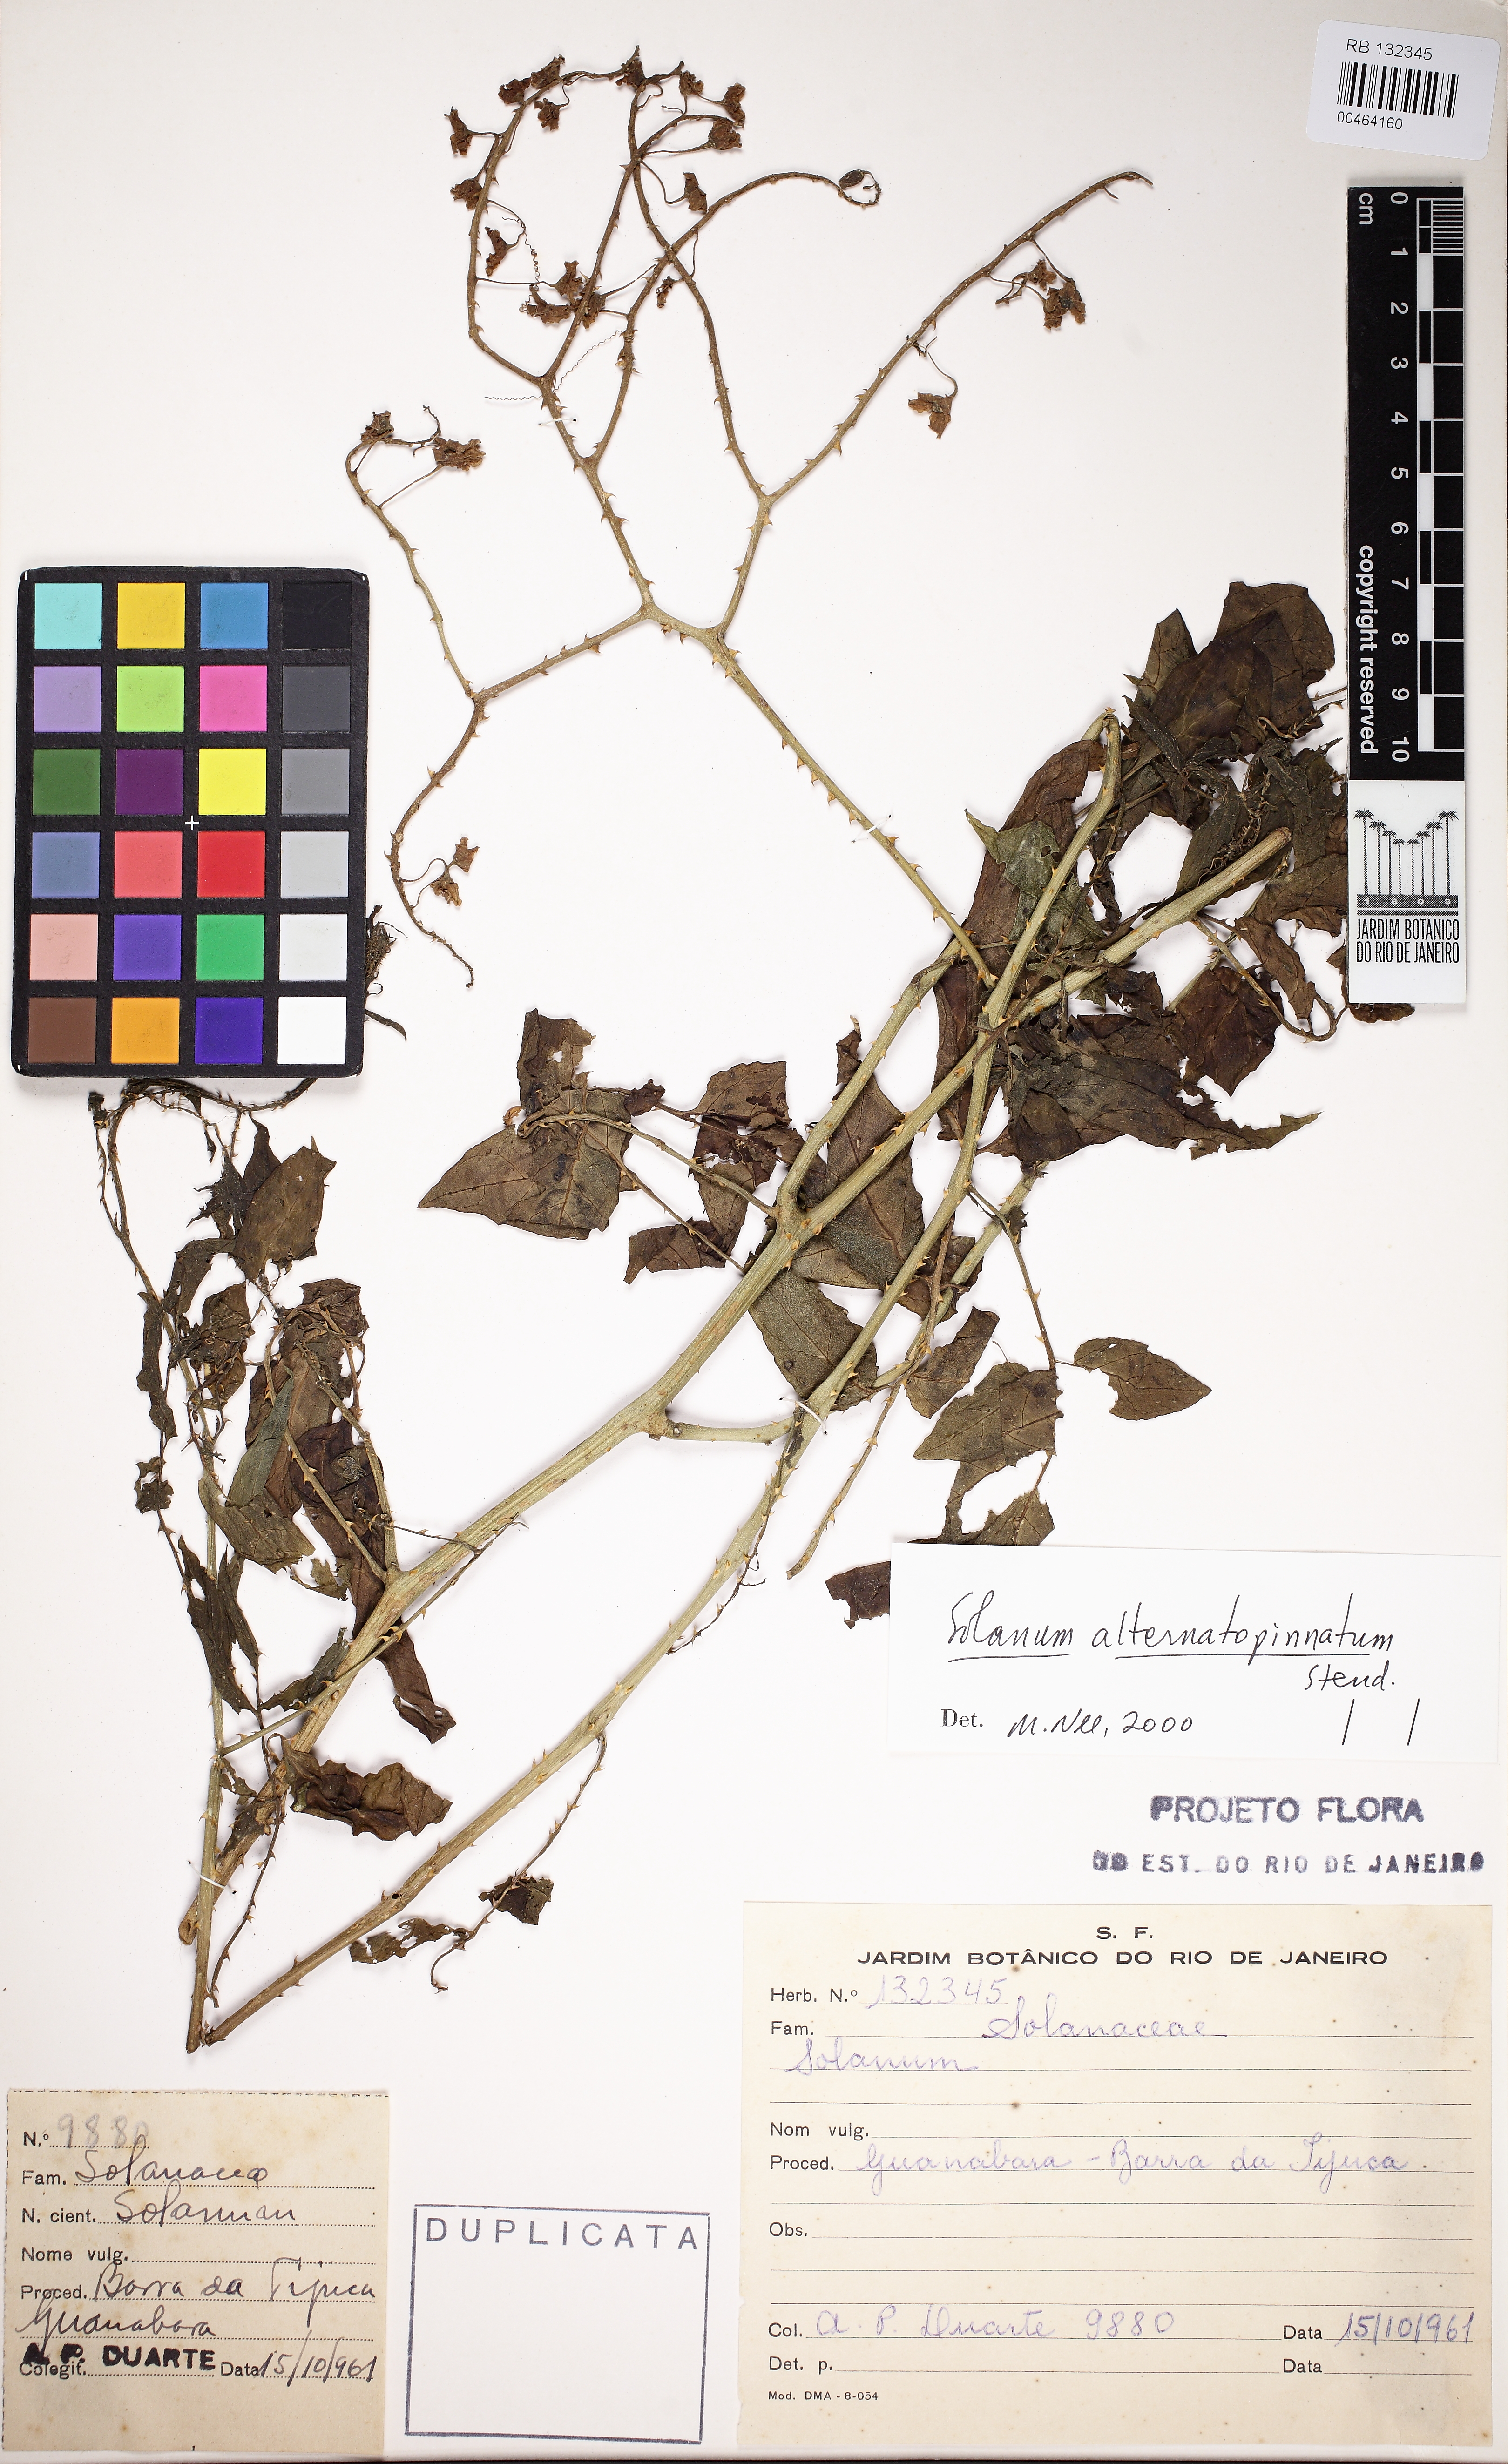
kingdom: Plantae
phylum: Tracheophyta
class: Magnoliopsida
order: Solanales
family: Solanaceae
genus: Solanum
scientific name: Solanum alternatopinnatum
